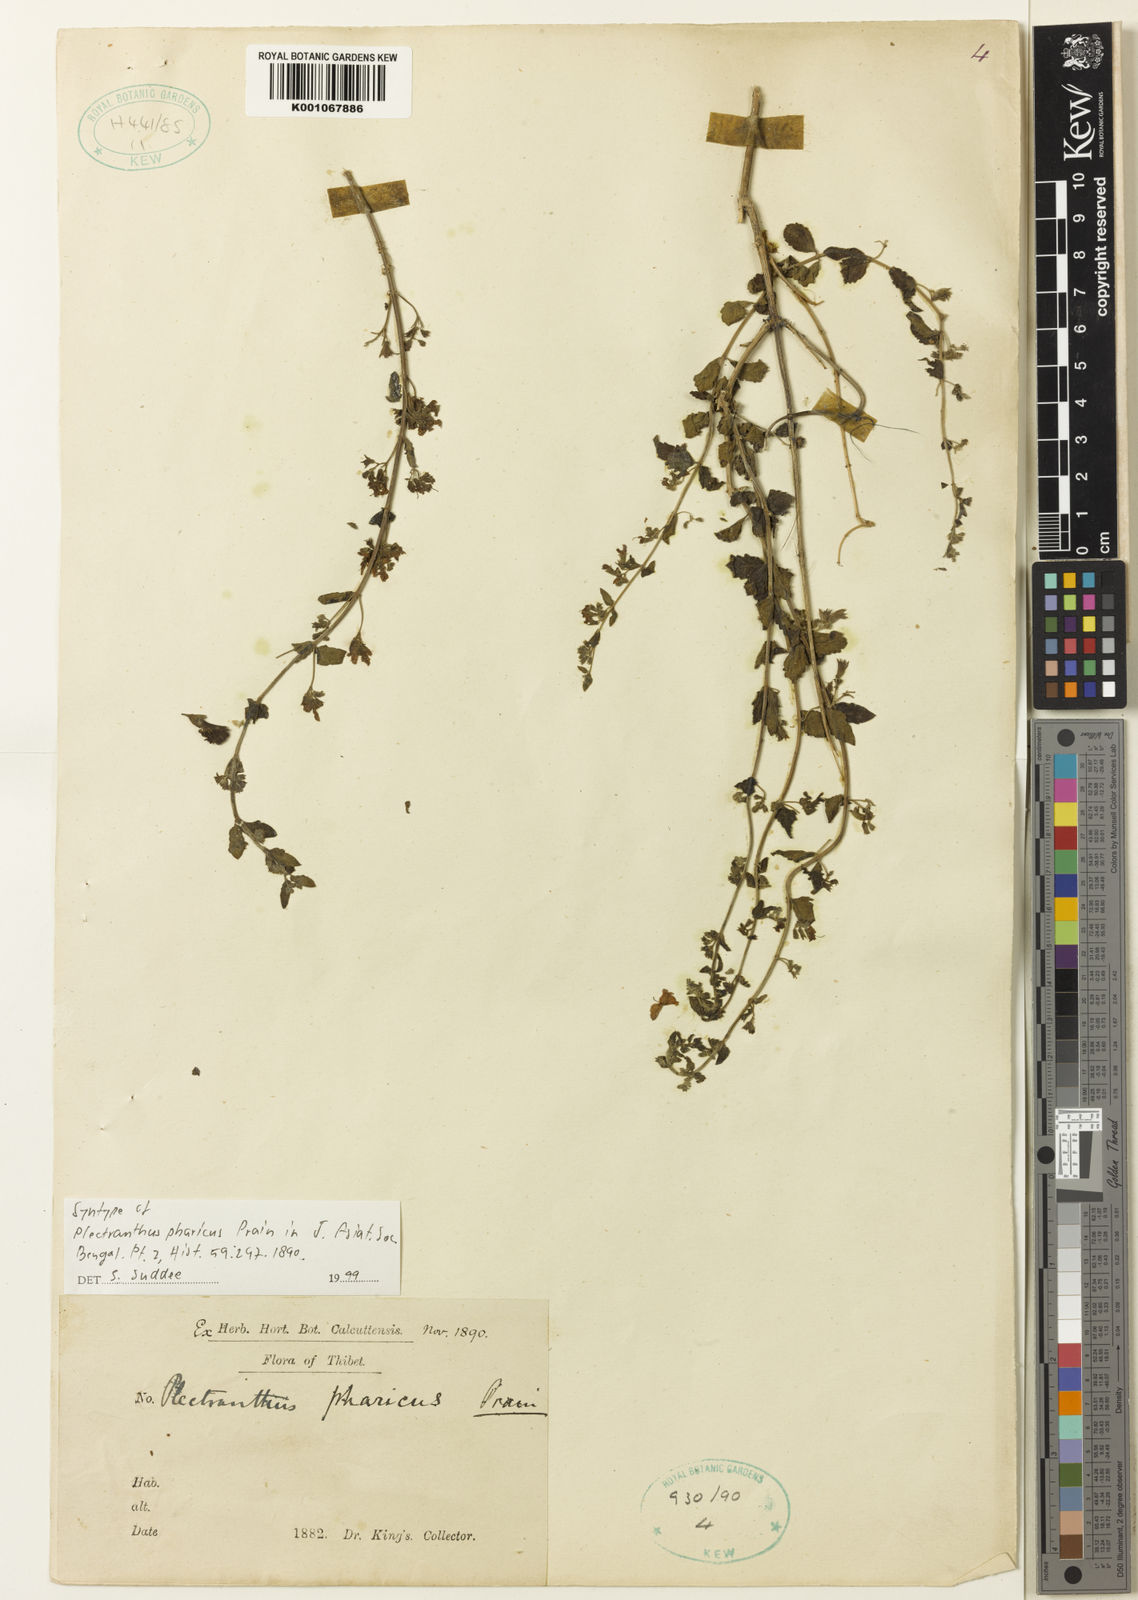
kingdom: Plantae
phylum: Tracheophyta
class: Magnoliopsida
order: Lamiales
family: Lamiaceae
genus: Isodon
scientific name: Isodon pharicus
